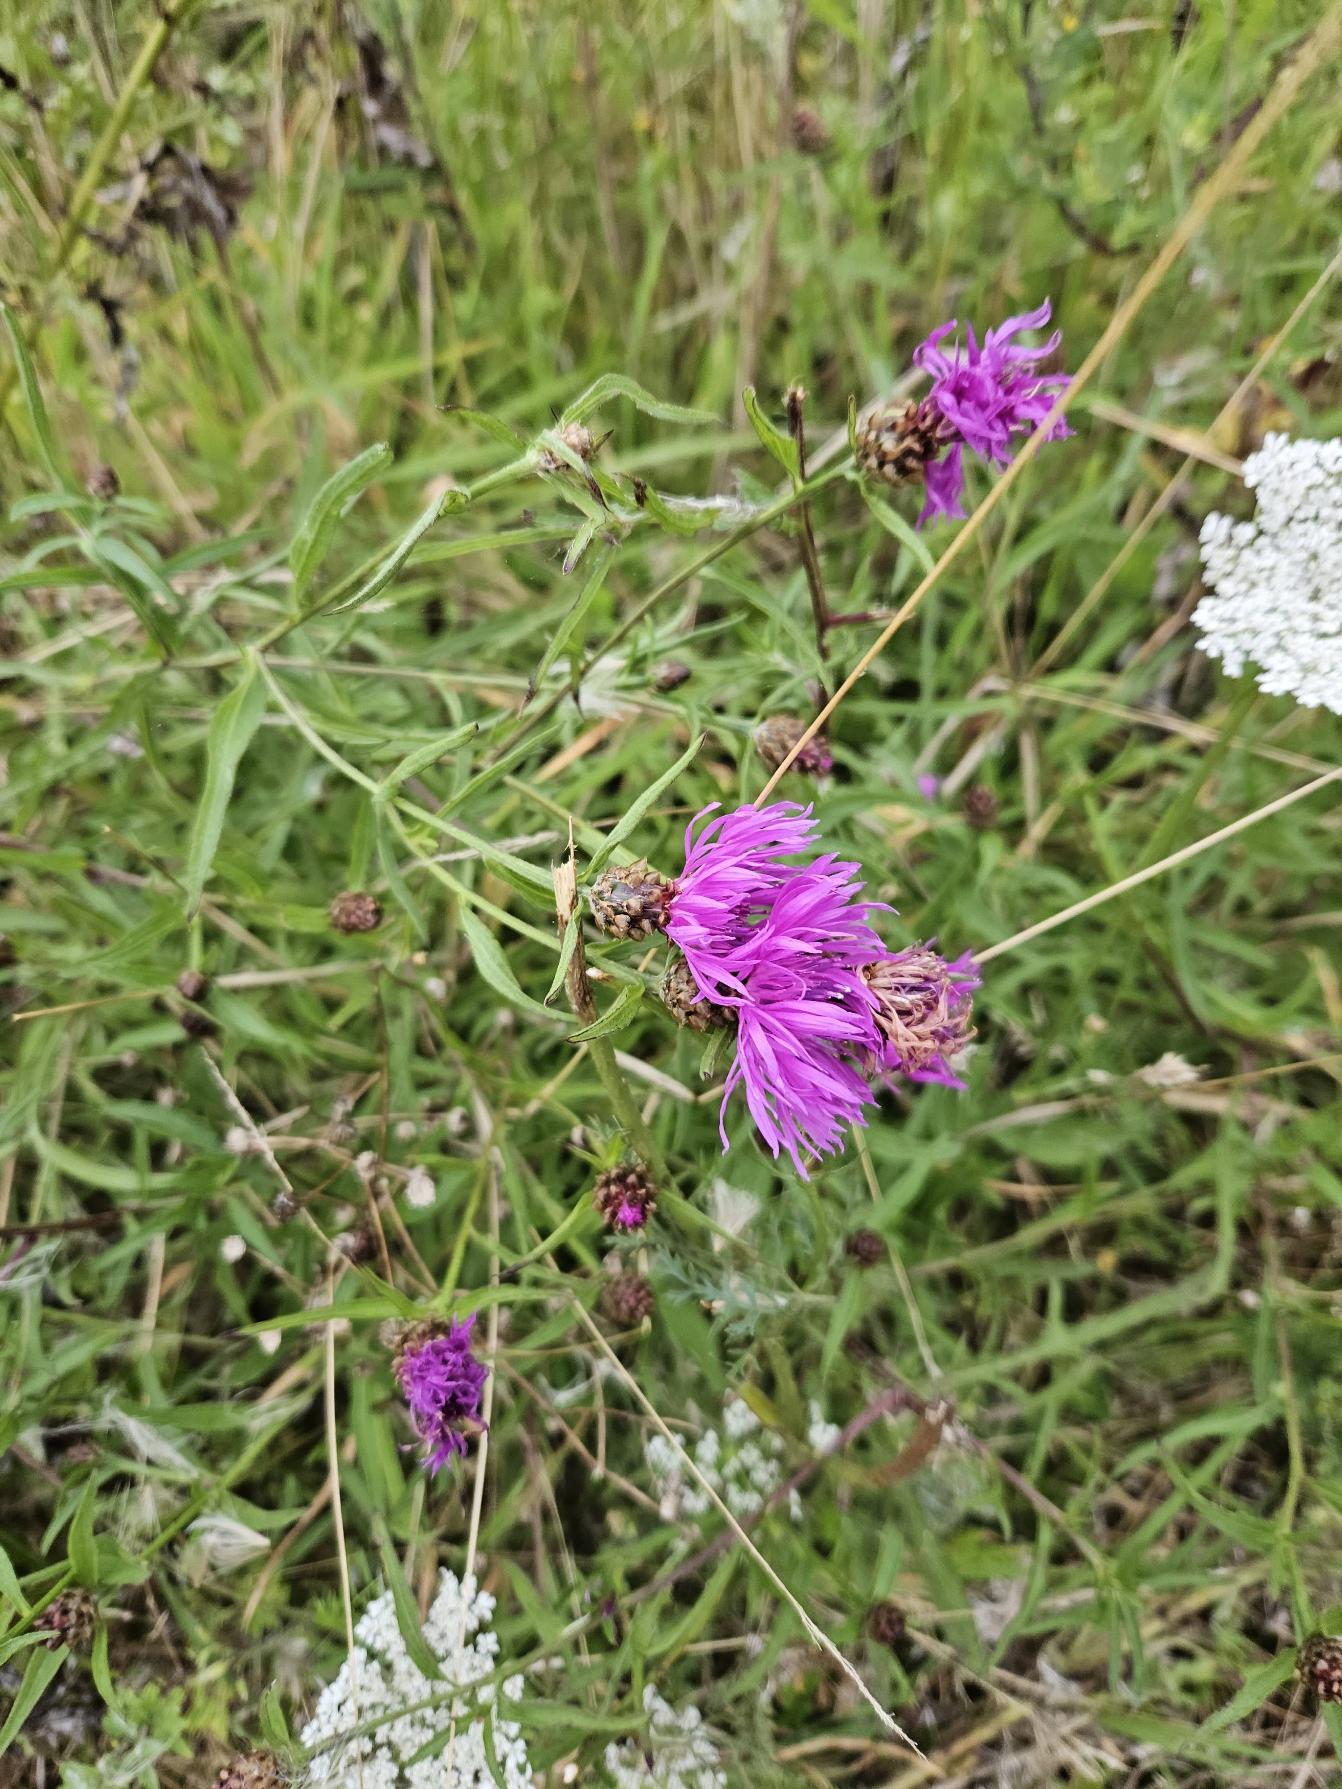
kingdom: Plantae
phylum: Tracheophyta
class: Magnoliopsida
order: Asterales
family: Asteraceae
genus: Centaurea
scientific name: Centaurea jacea
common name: Almindelig knopurt
